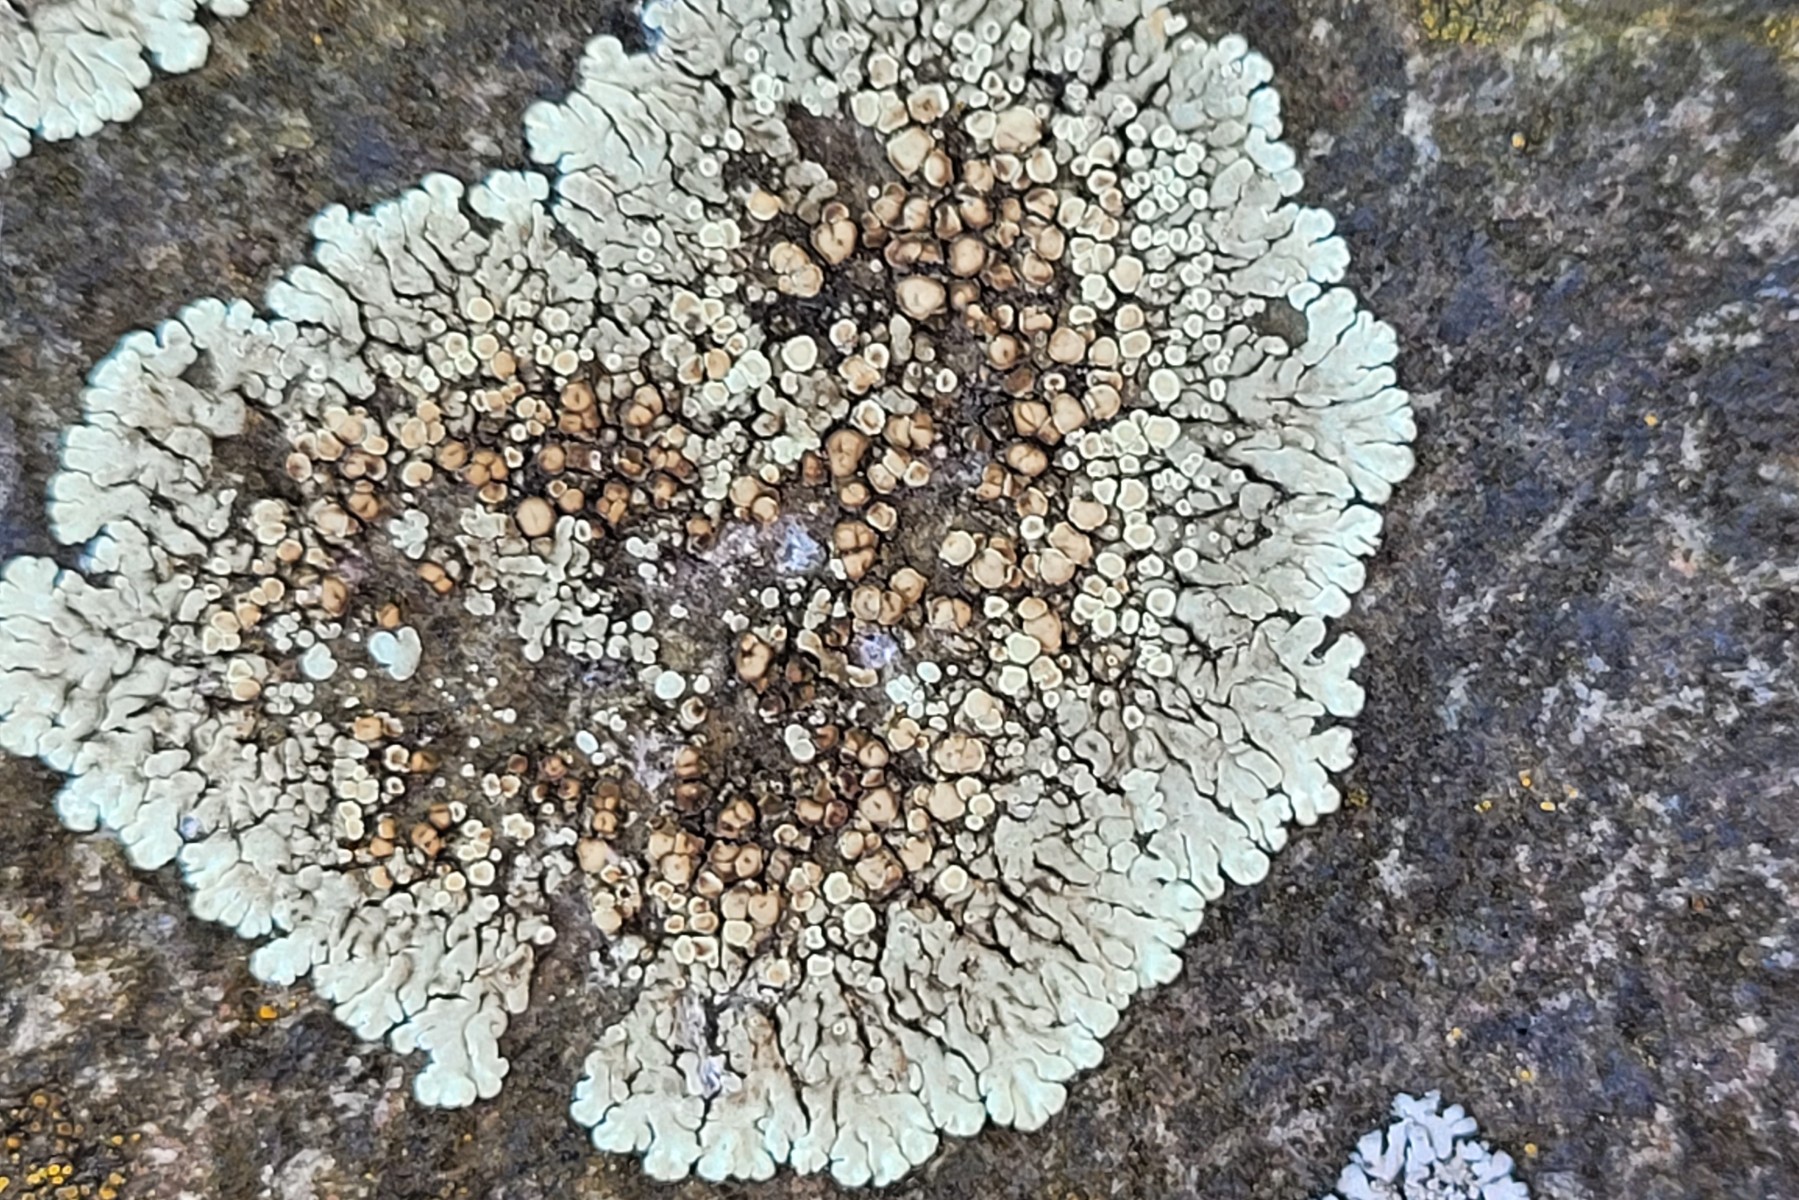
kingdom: Fungi
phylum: Ascomycota
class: Lecanoromycetes
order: Lecanorales
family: Lecanoraceae
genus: Protoparmeliopsis
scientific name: Protoparmeliopsis muralis
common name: randfliget kantskivelav
